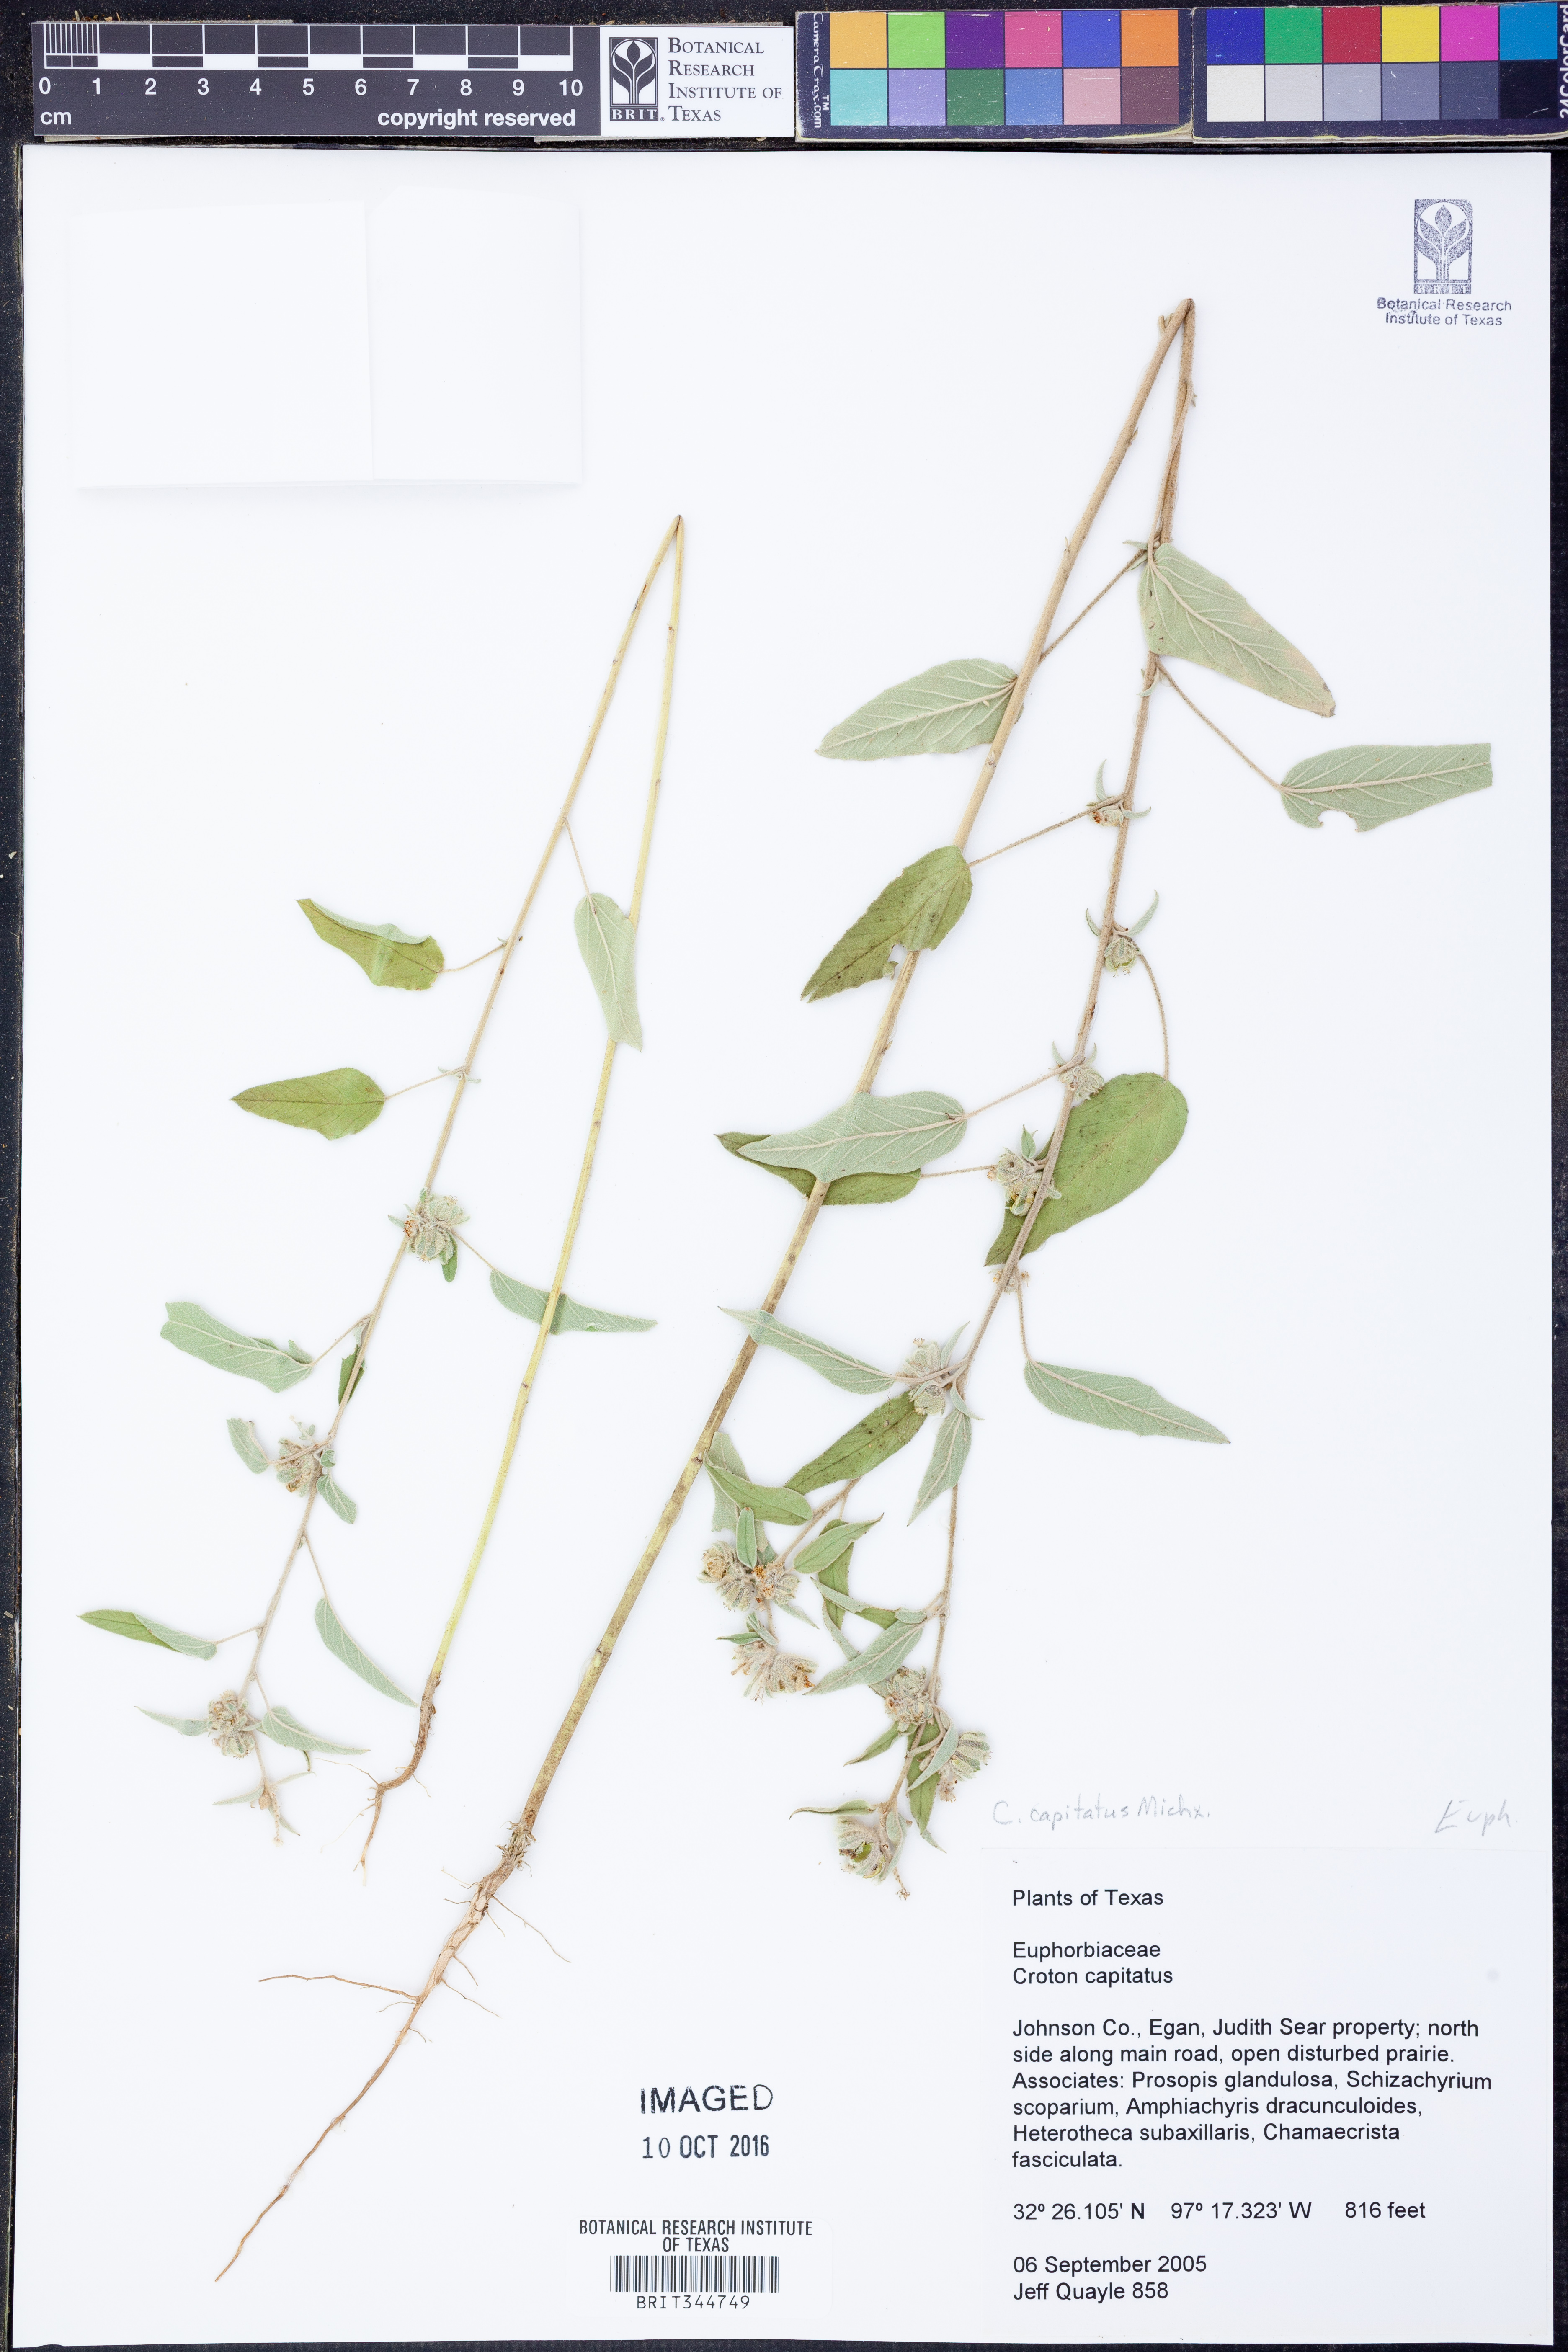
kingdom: Plantae
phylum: Tracheophyta
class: Magnoliopsida
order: Malpighiales
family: Euphorbiaceae
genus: Croton
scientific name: Croton capitatus
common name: Woolly croton
